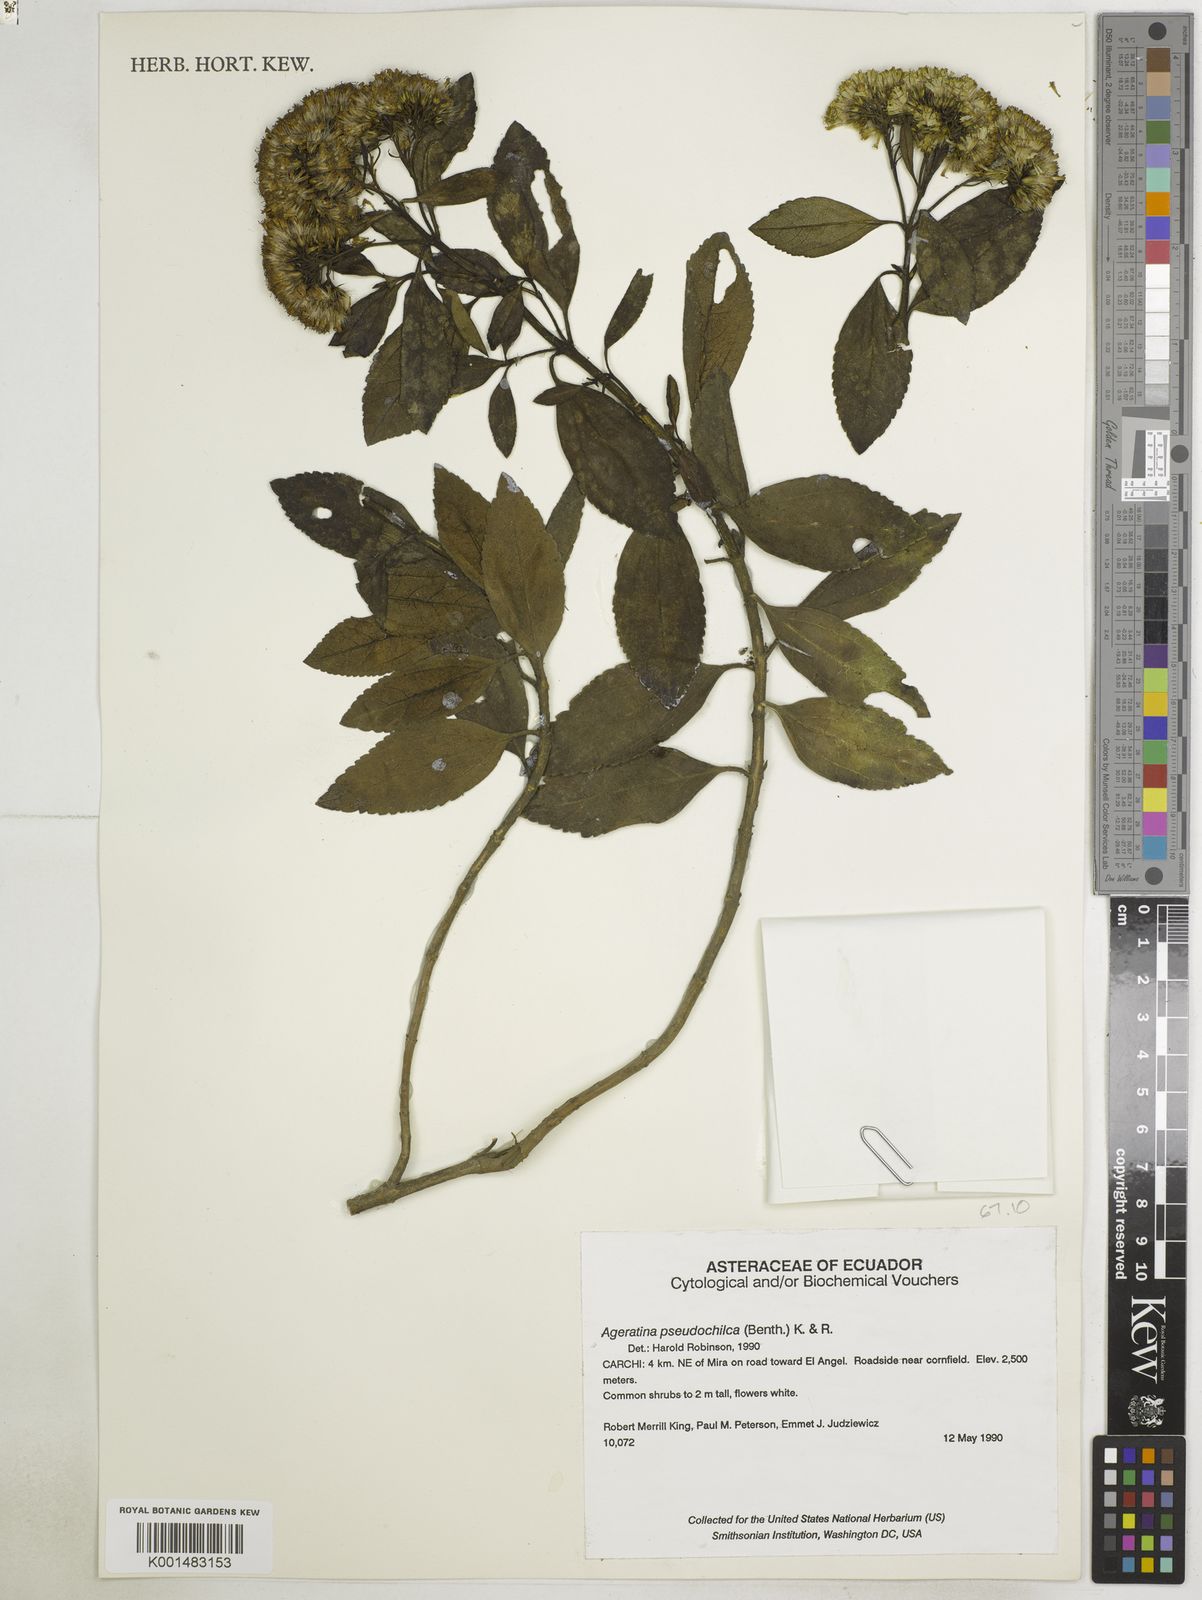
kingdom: Plantae
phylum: Tracheophyta
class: Magnoliopsida
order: Asterales
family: Asteraceae
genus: Ageratina
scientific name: Ageratina pseudochilca
